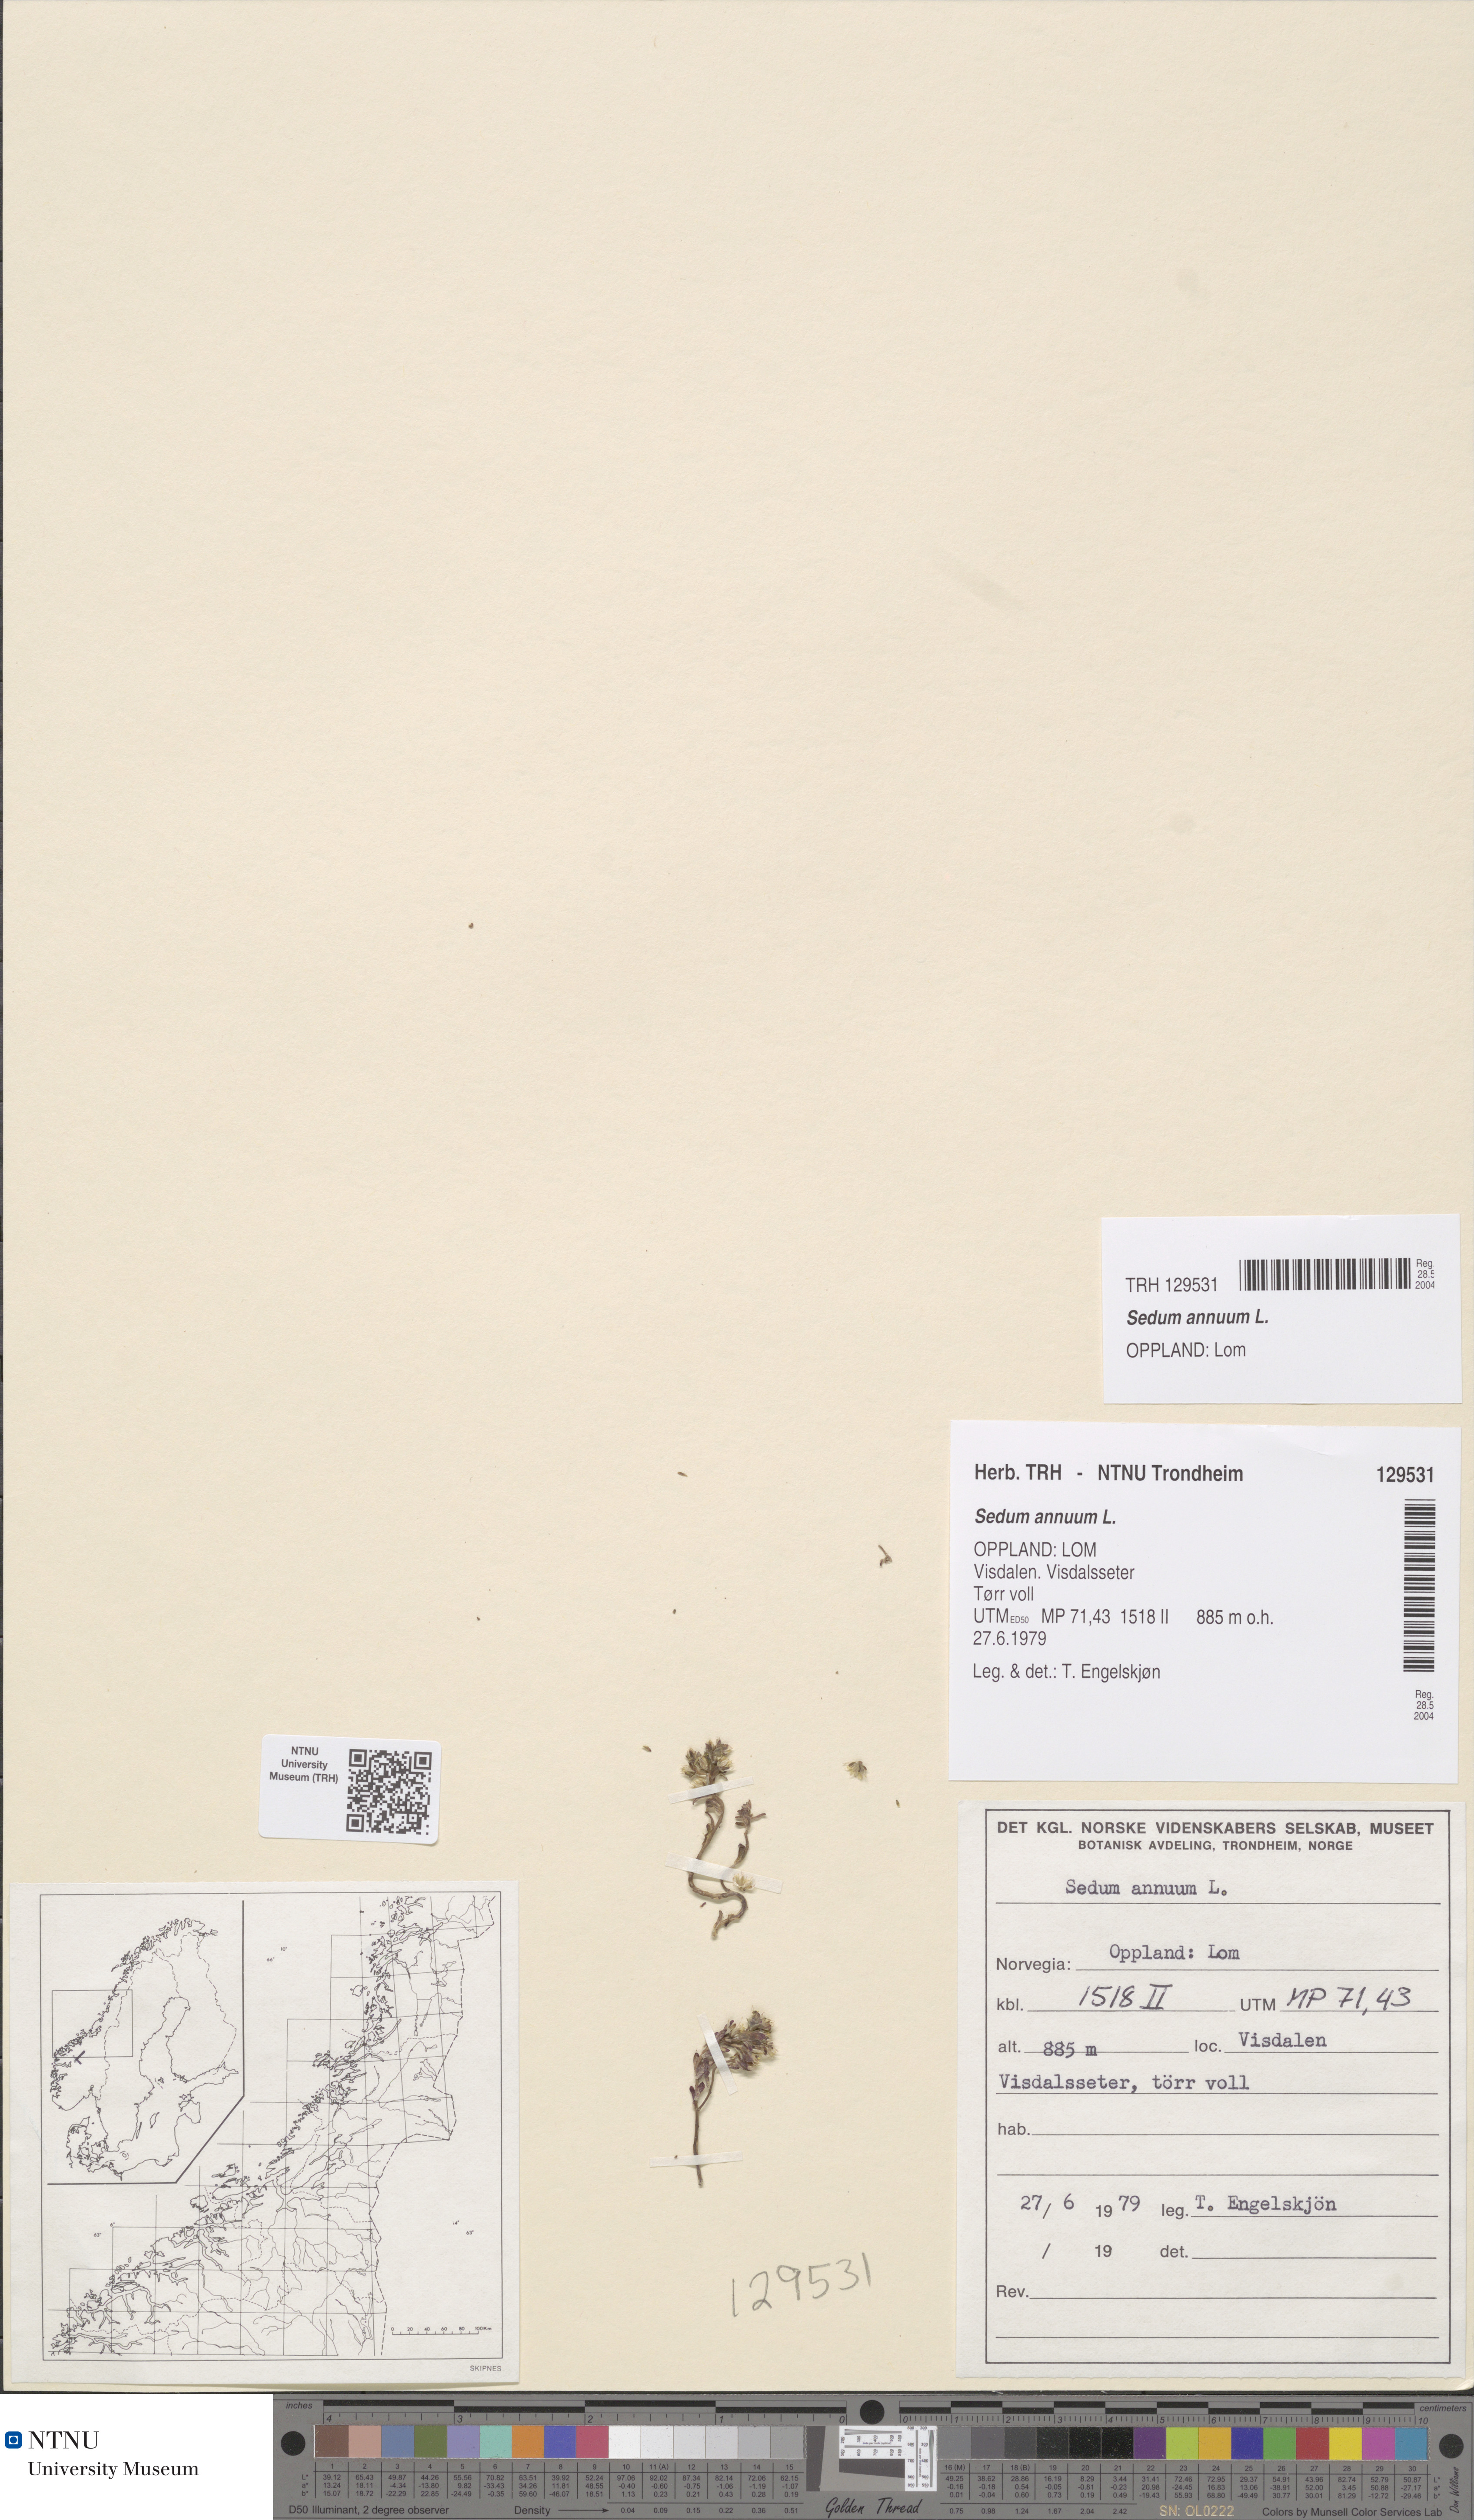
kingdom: Plantae
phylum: Tracheophyta
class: Magnoliopsida
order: Saxifragales
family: Crassulaceae
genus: Sedum
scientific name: Sedum annuum
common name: Annual stonecrop
